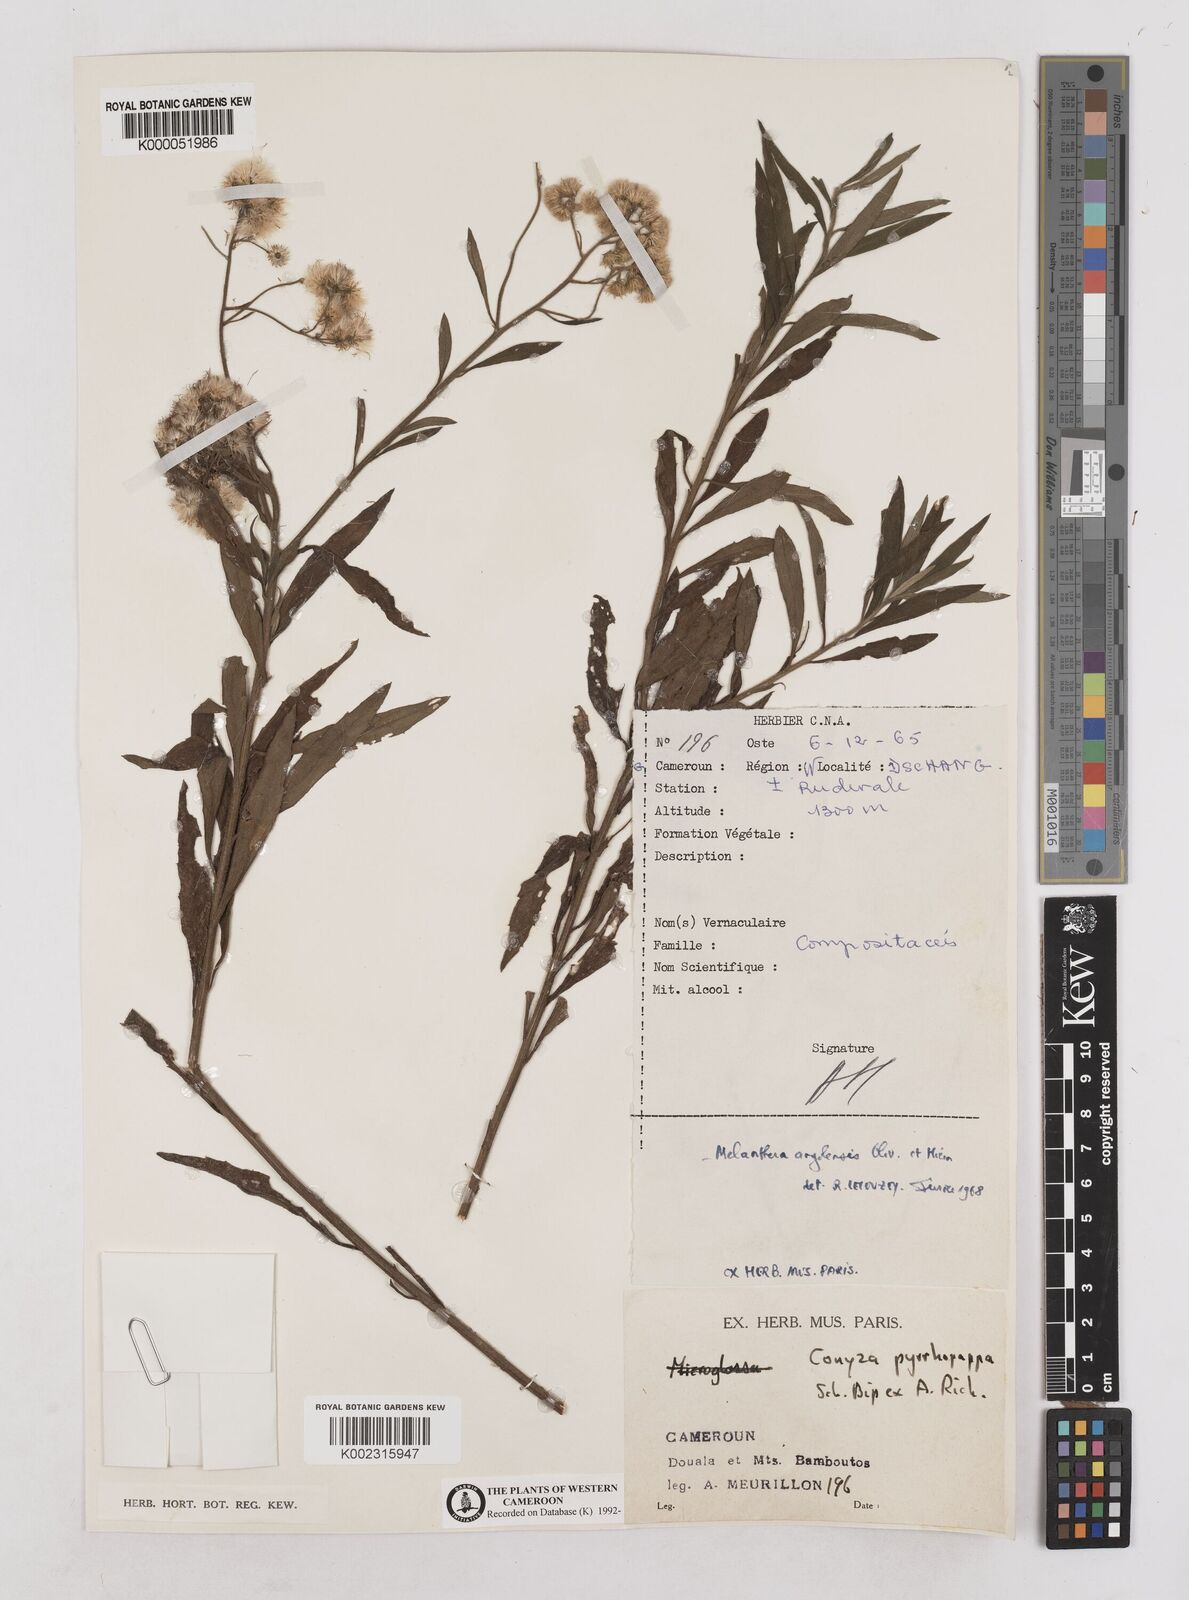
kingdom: Plantae
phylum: Tracheophyta
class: Magnoliopsida
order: Asterales
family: Asteraceae
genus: Microglossa
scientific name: Microglossa pyrrhopappa
